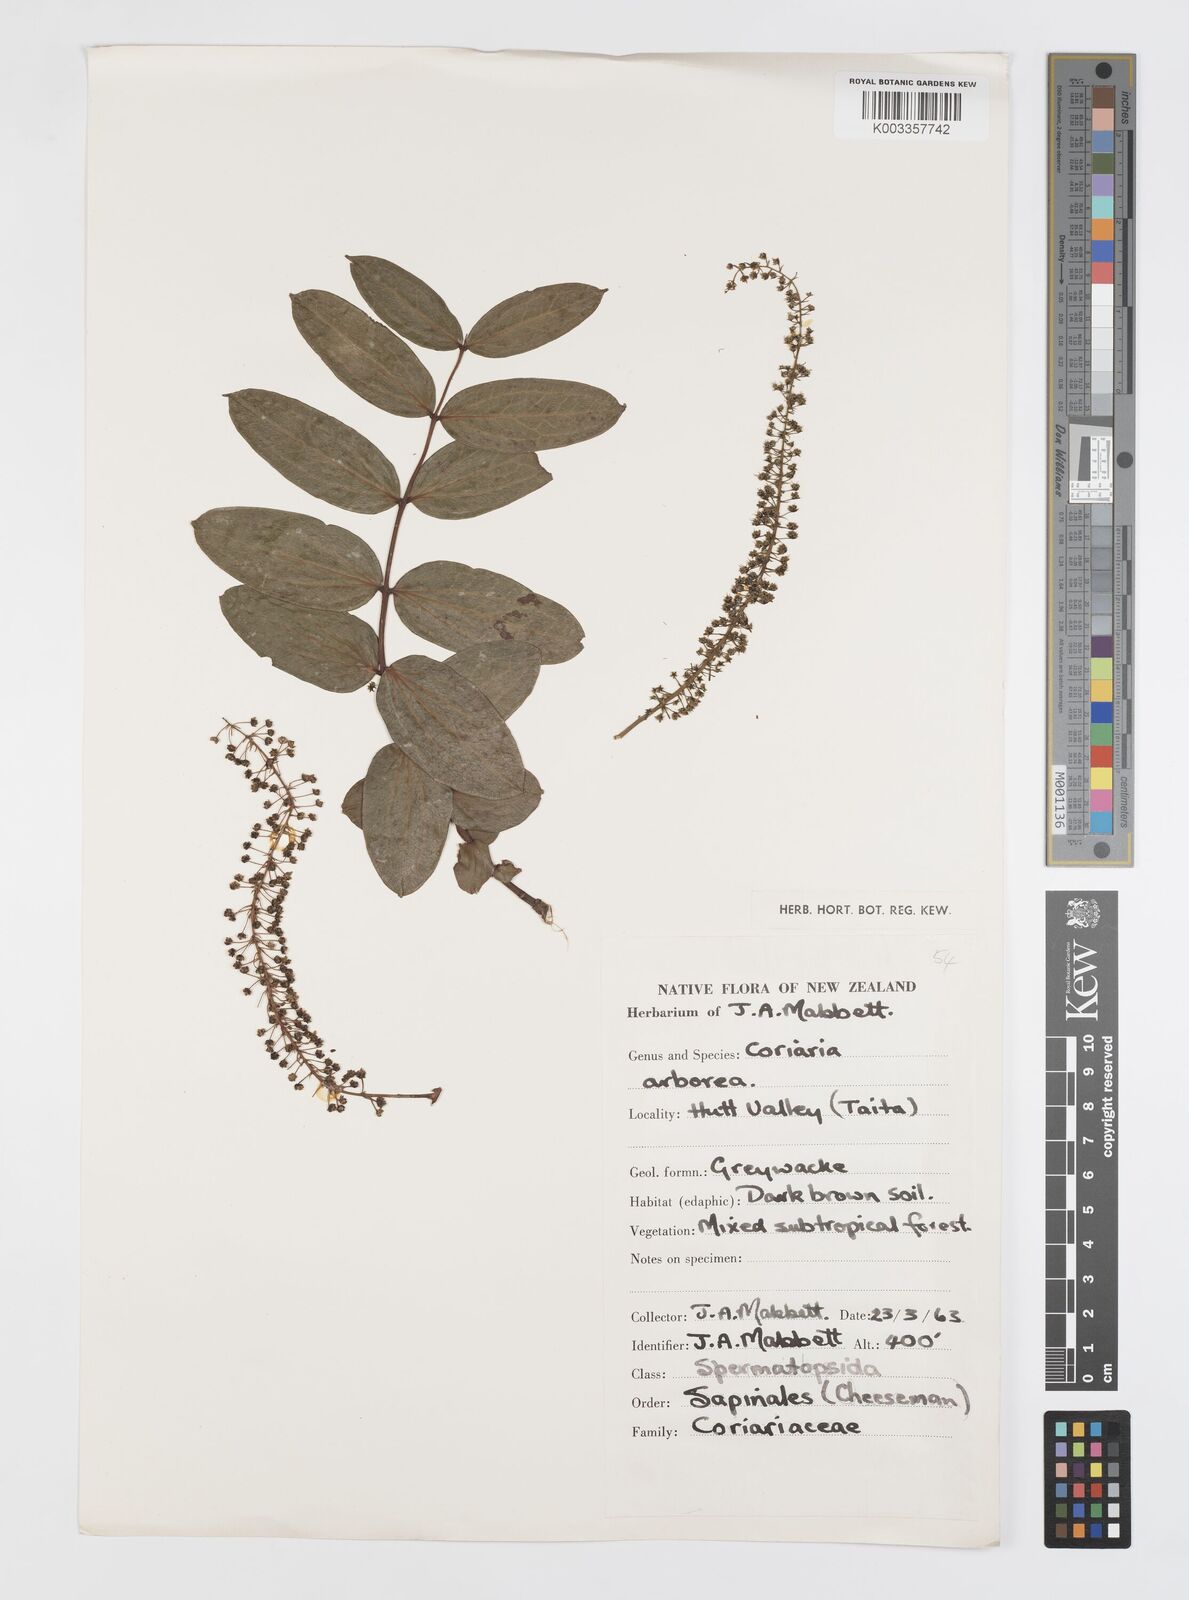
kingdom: Plantae
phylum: Tracheophyta
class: Magnoliopsida
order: Cucurbitales
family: Coriariaceae
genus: Coriaria
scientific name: Coriaria arborea
